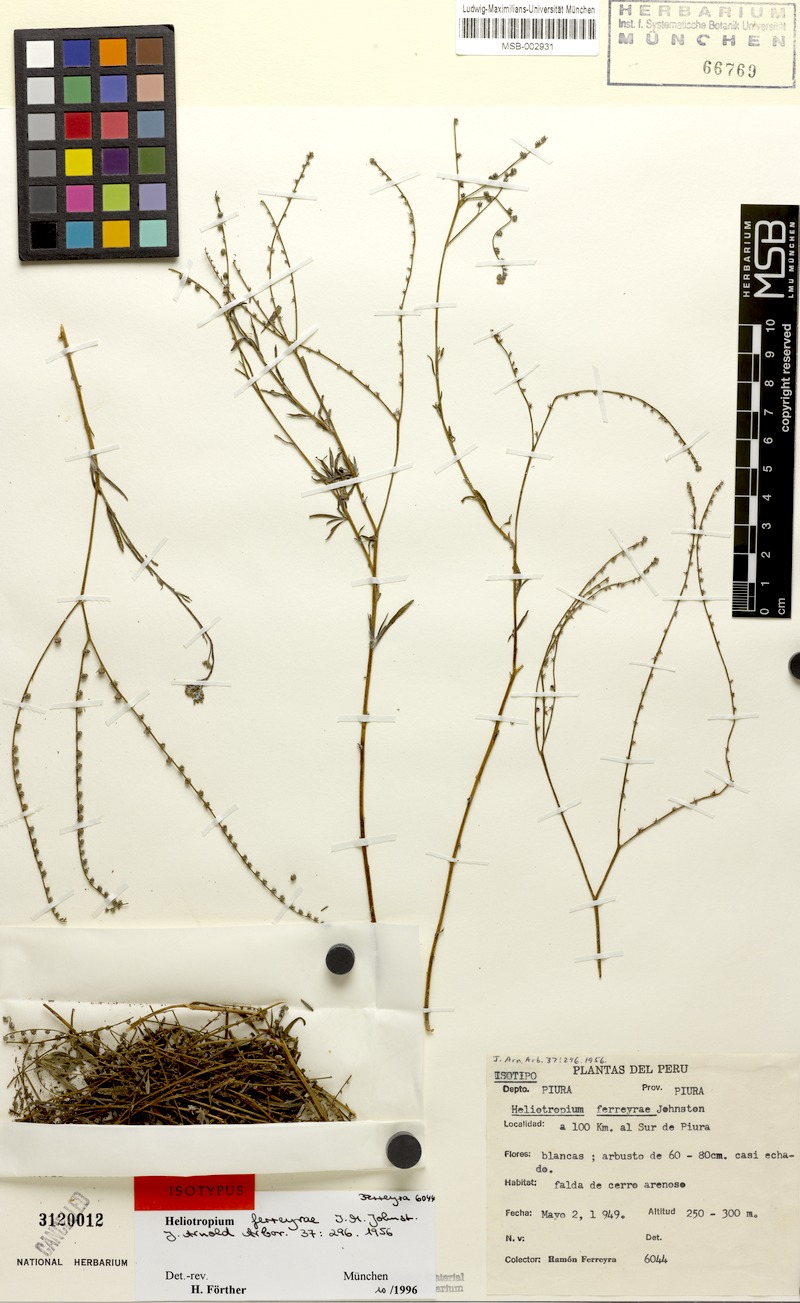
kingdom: Plantae
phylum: Tracheophyta
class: Magnoliopsida
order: Boraginales
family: Heliotropiaceae
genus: Euploca
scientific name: Euploca ferreyrae
